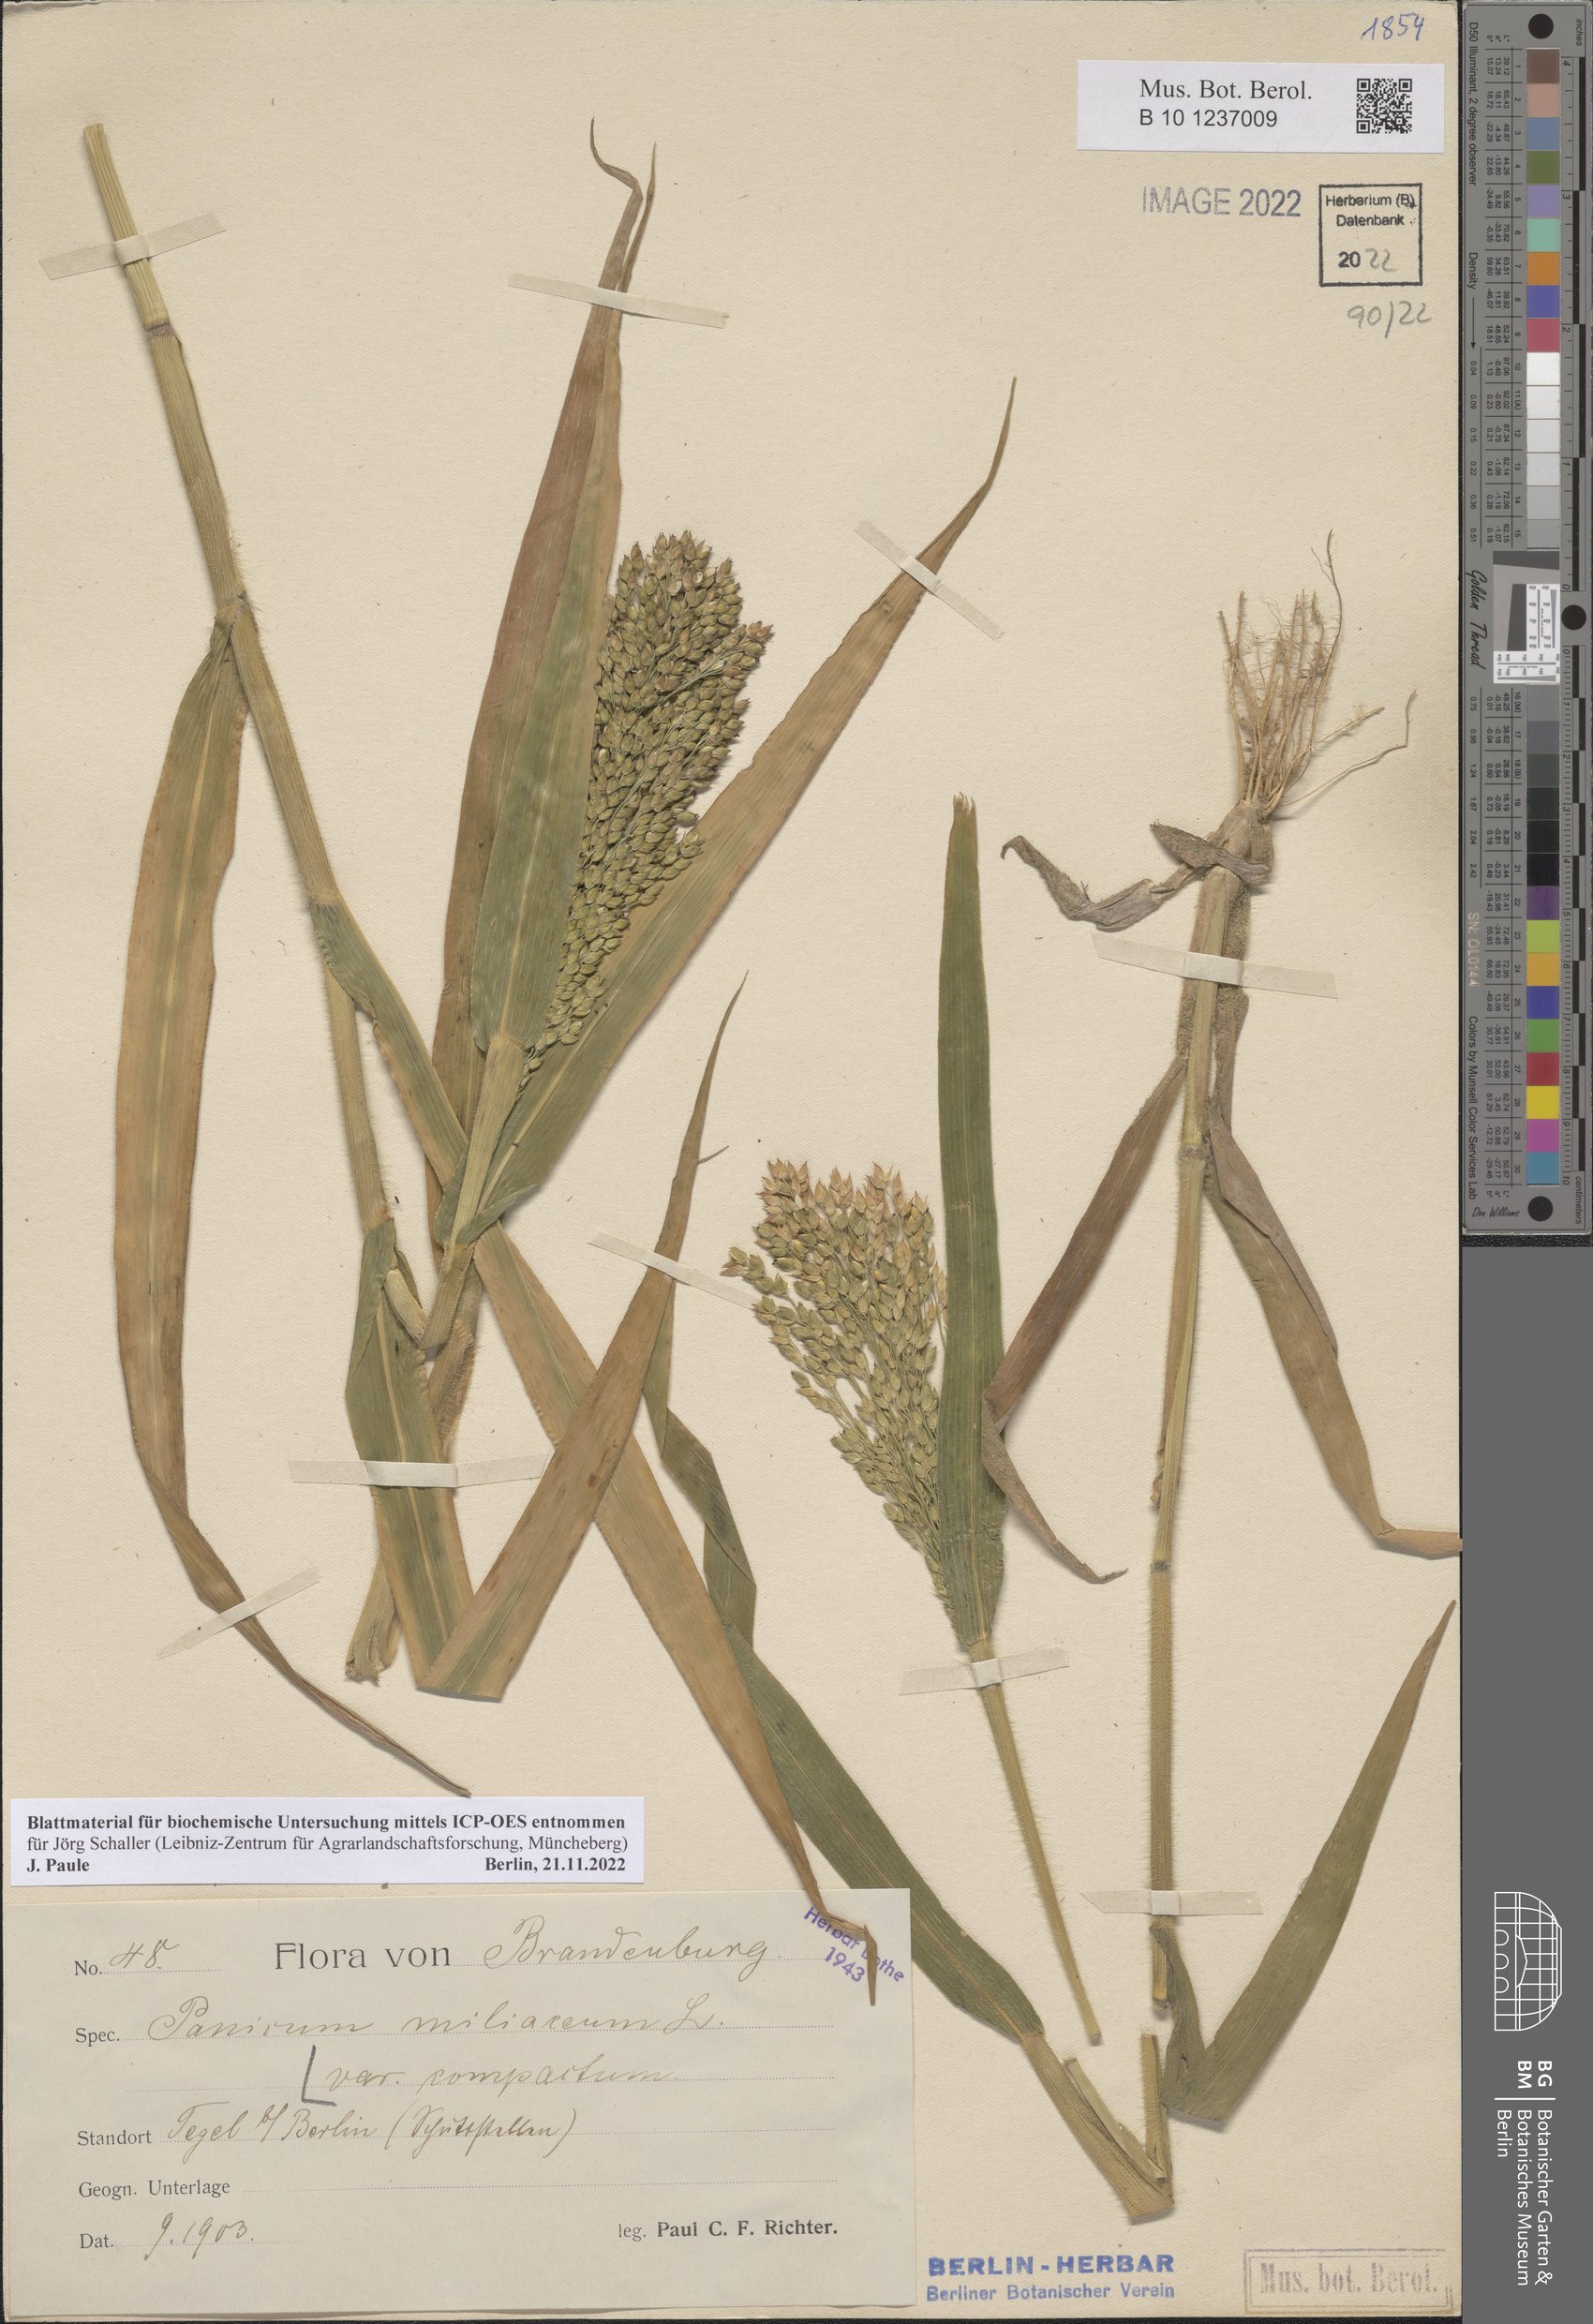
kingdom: Plantae
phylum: Tracheophyta
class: Liliopsida
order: Poales
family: Poaceae
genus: Panicum
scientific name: Panicum miliaceum
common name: Common millet
